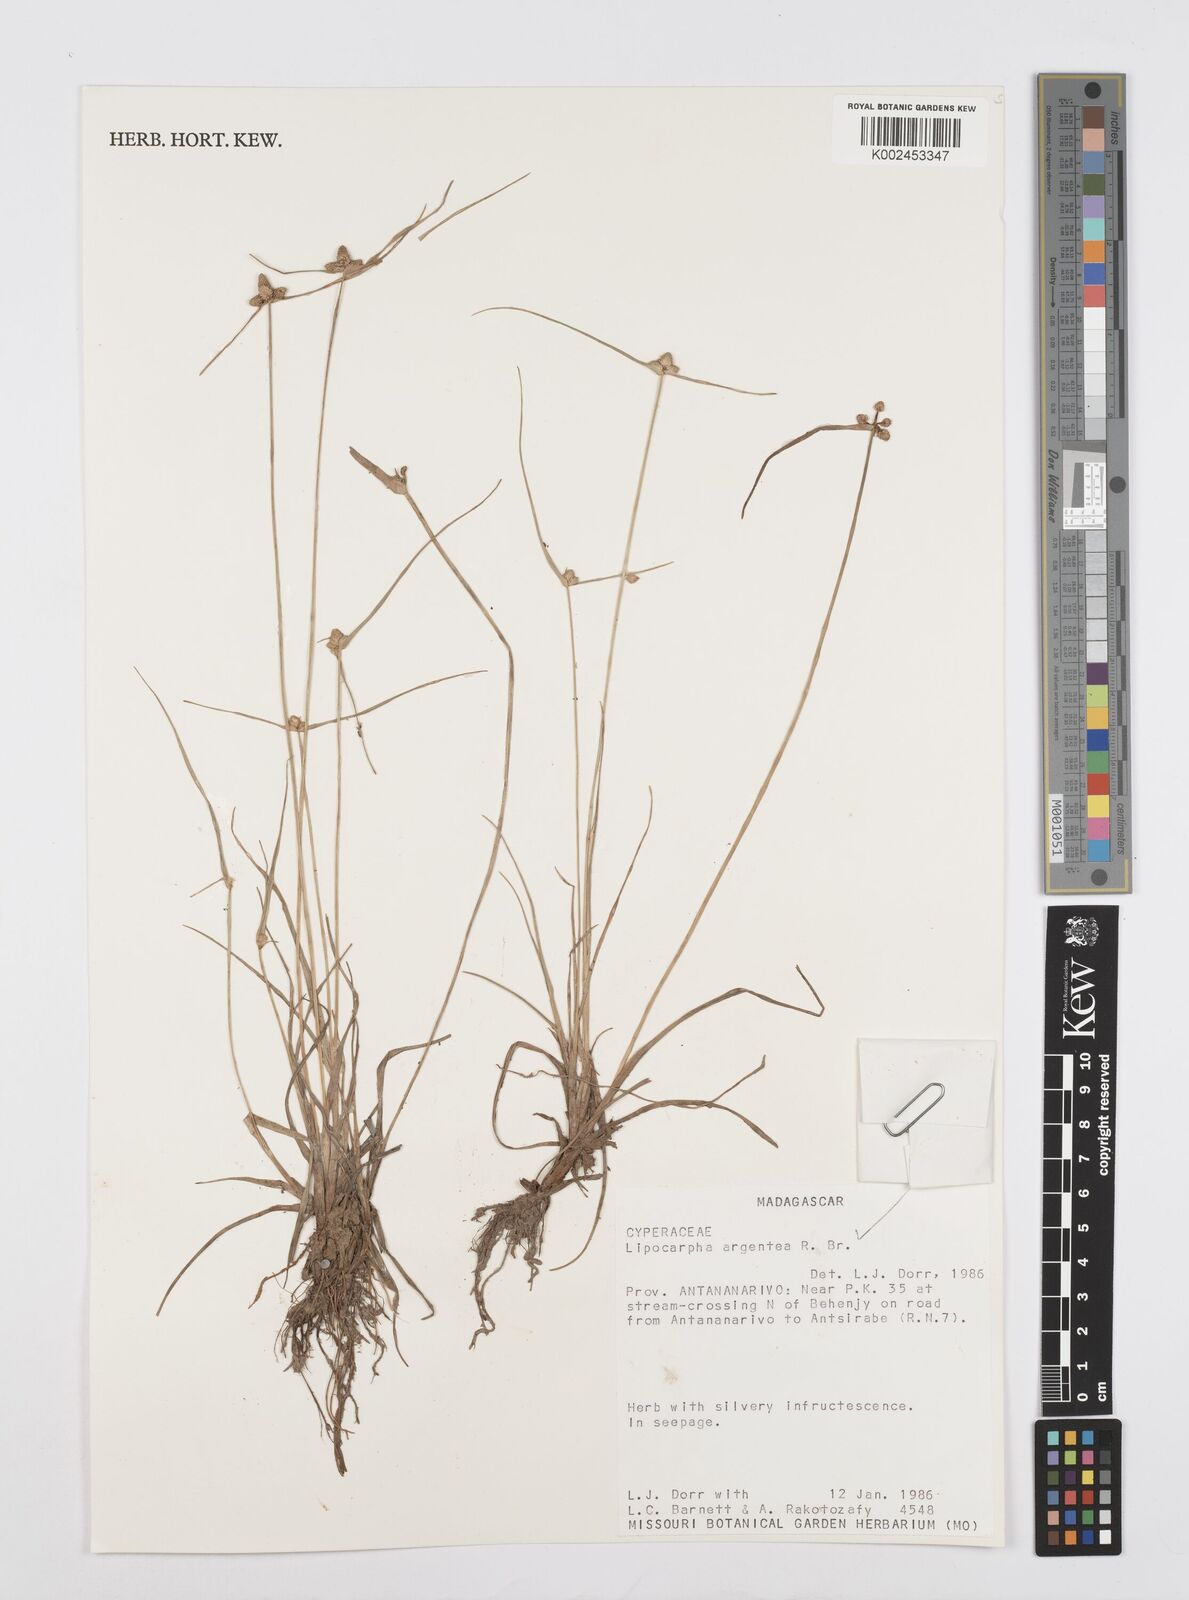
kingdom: Plantae
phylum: Tracheophyta
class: Liliopsida
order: Poales
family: Cyperaceae
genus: Cyperus
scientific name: Cyperus
